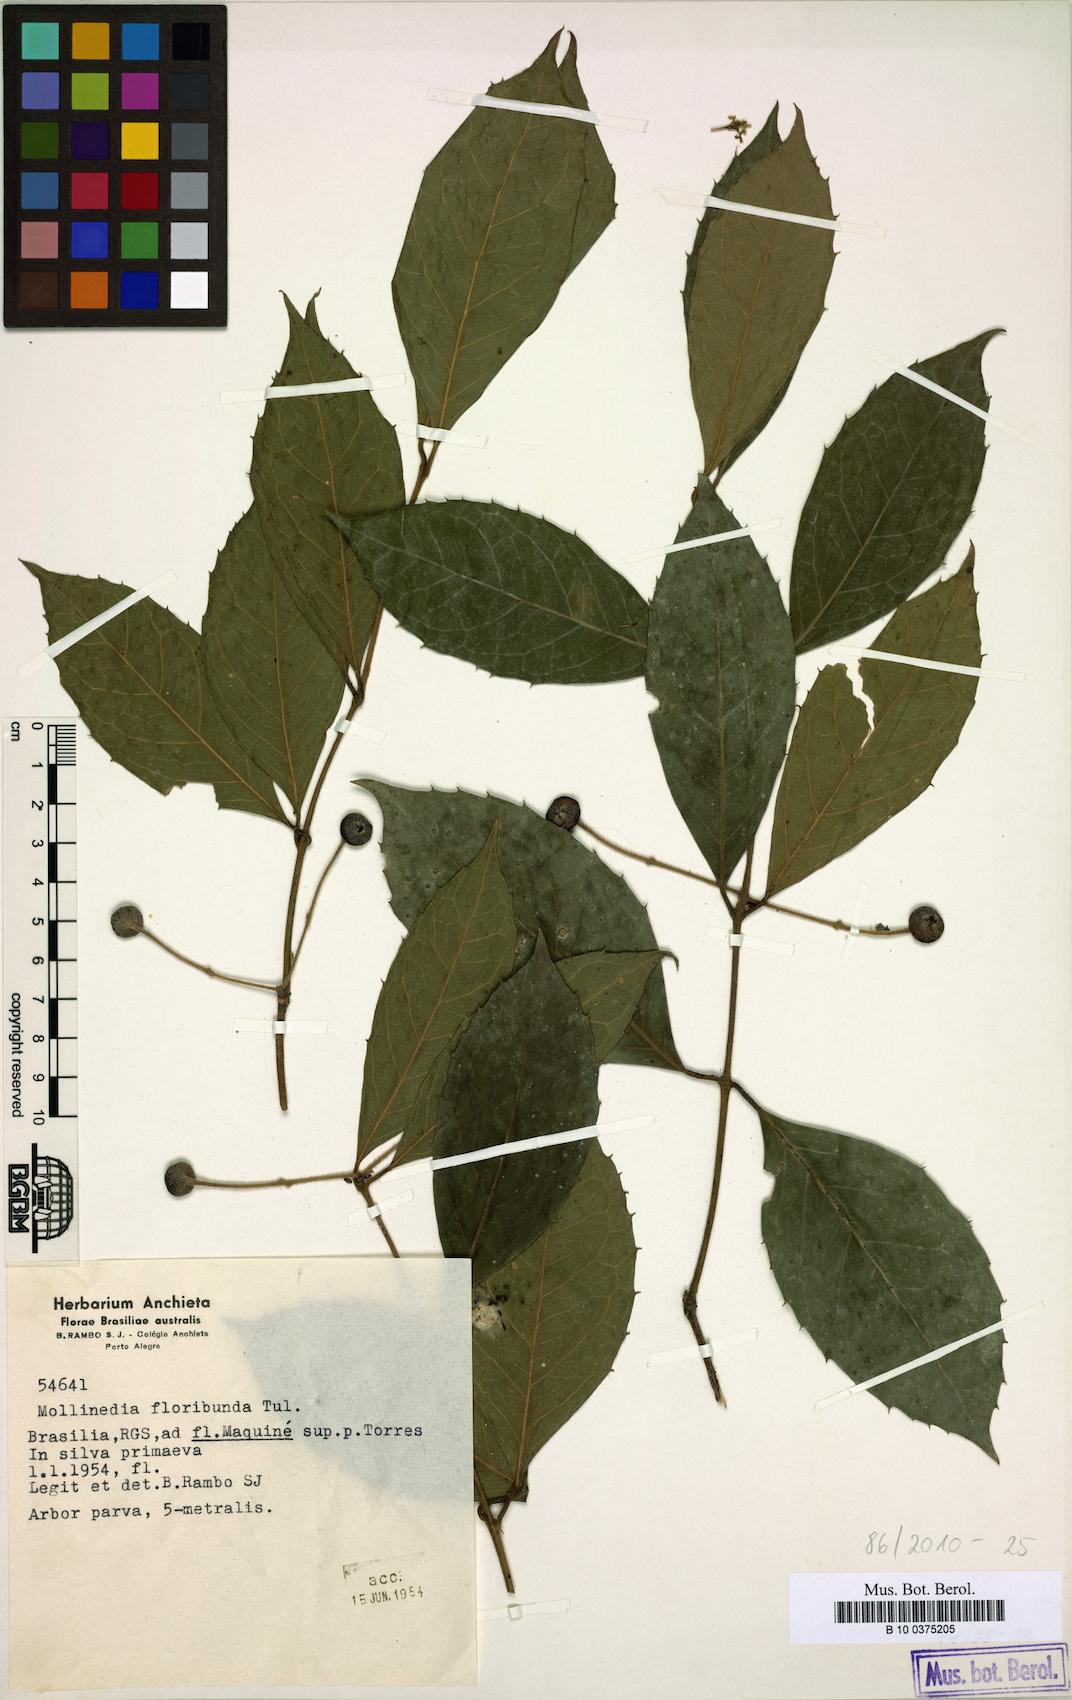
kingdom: Plantae
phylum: Tracheophyta
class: Magnoliopsida
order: Laurales
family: Monimiaceae
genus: Mollinedia
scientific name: Mollinedia umbellata
